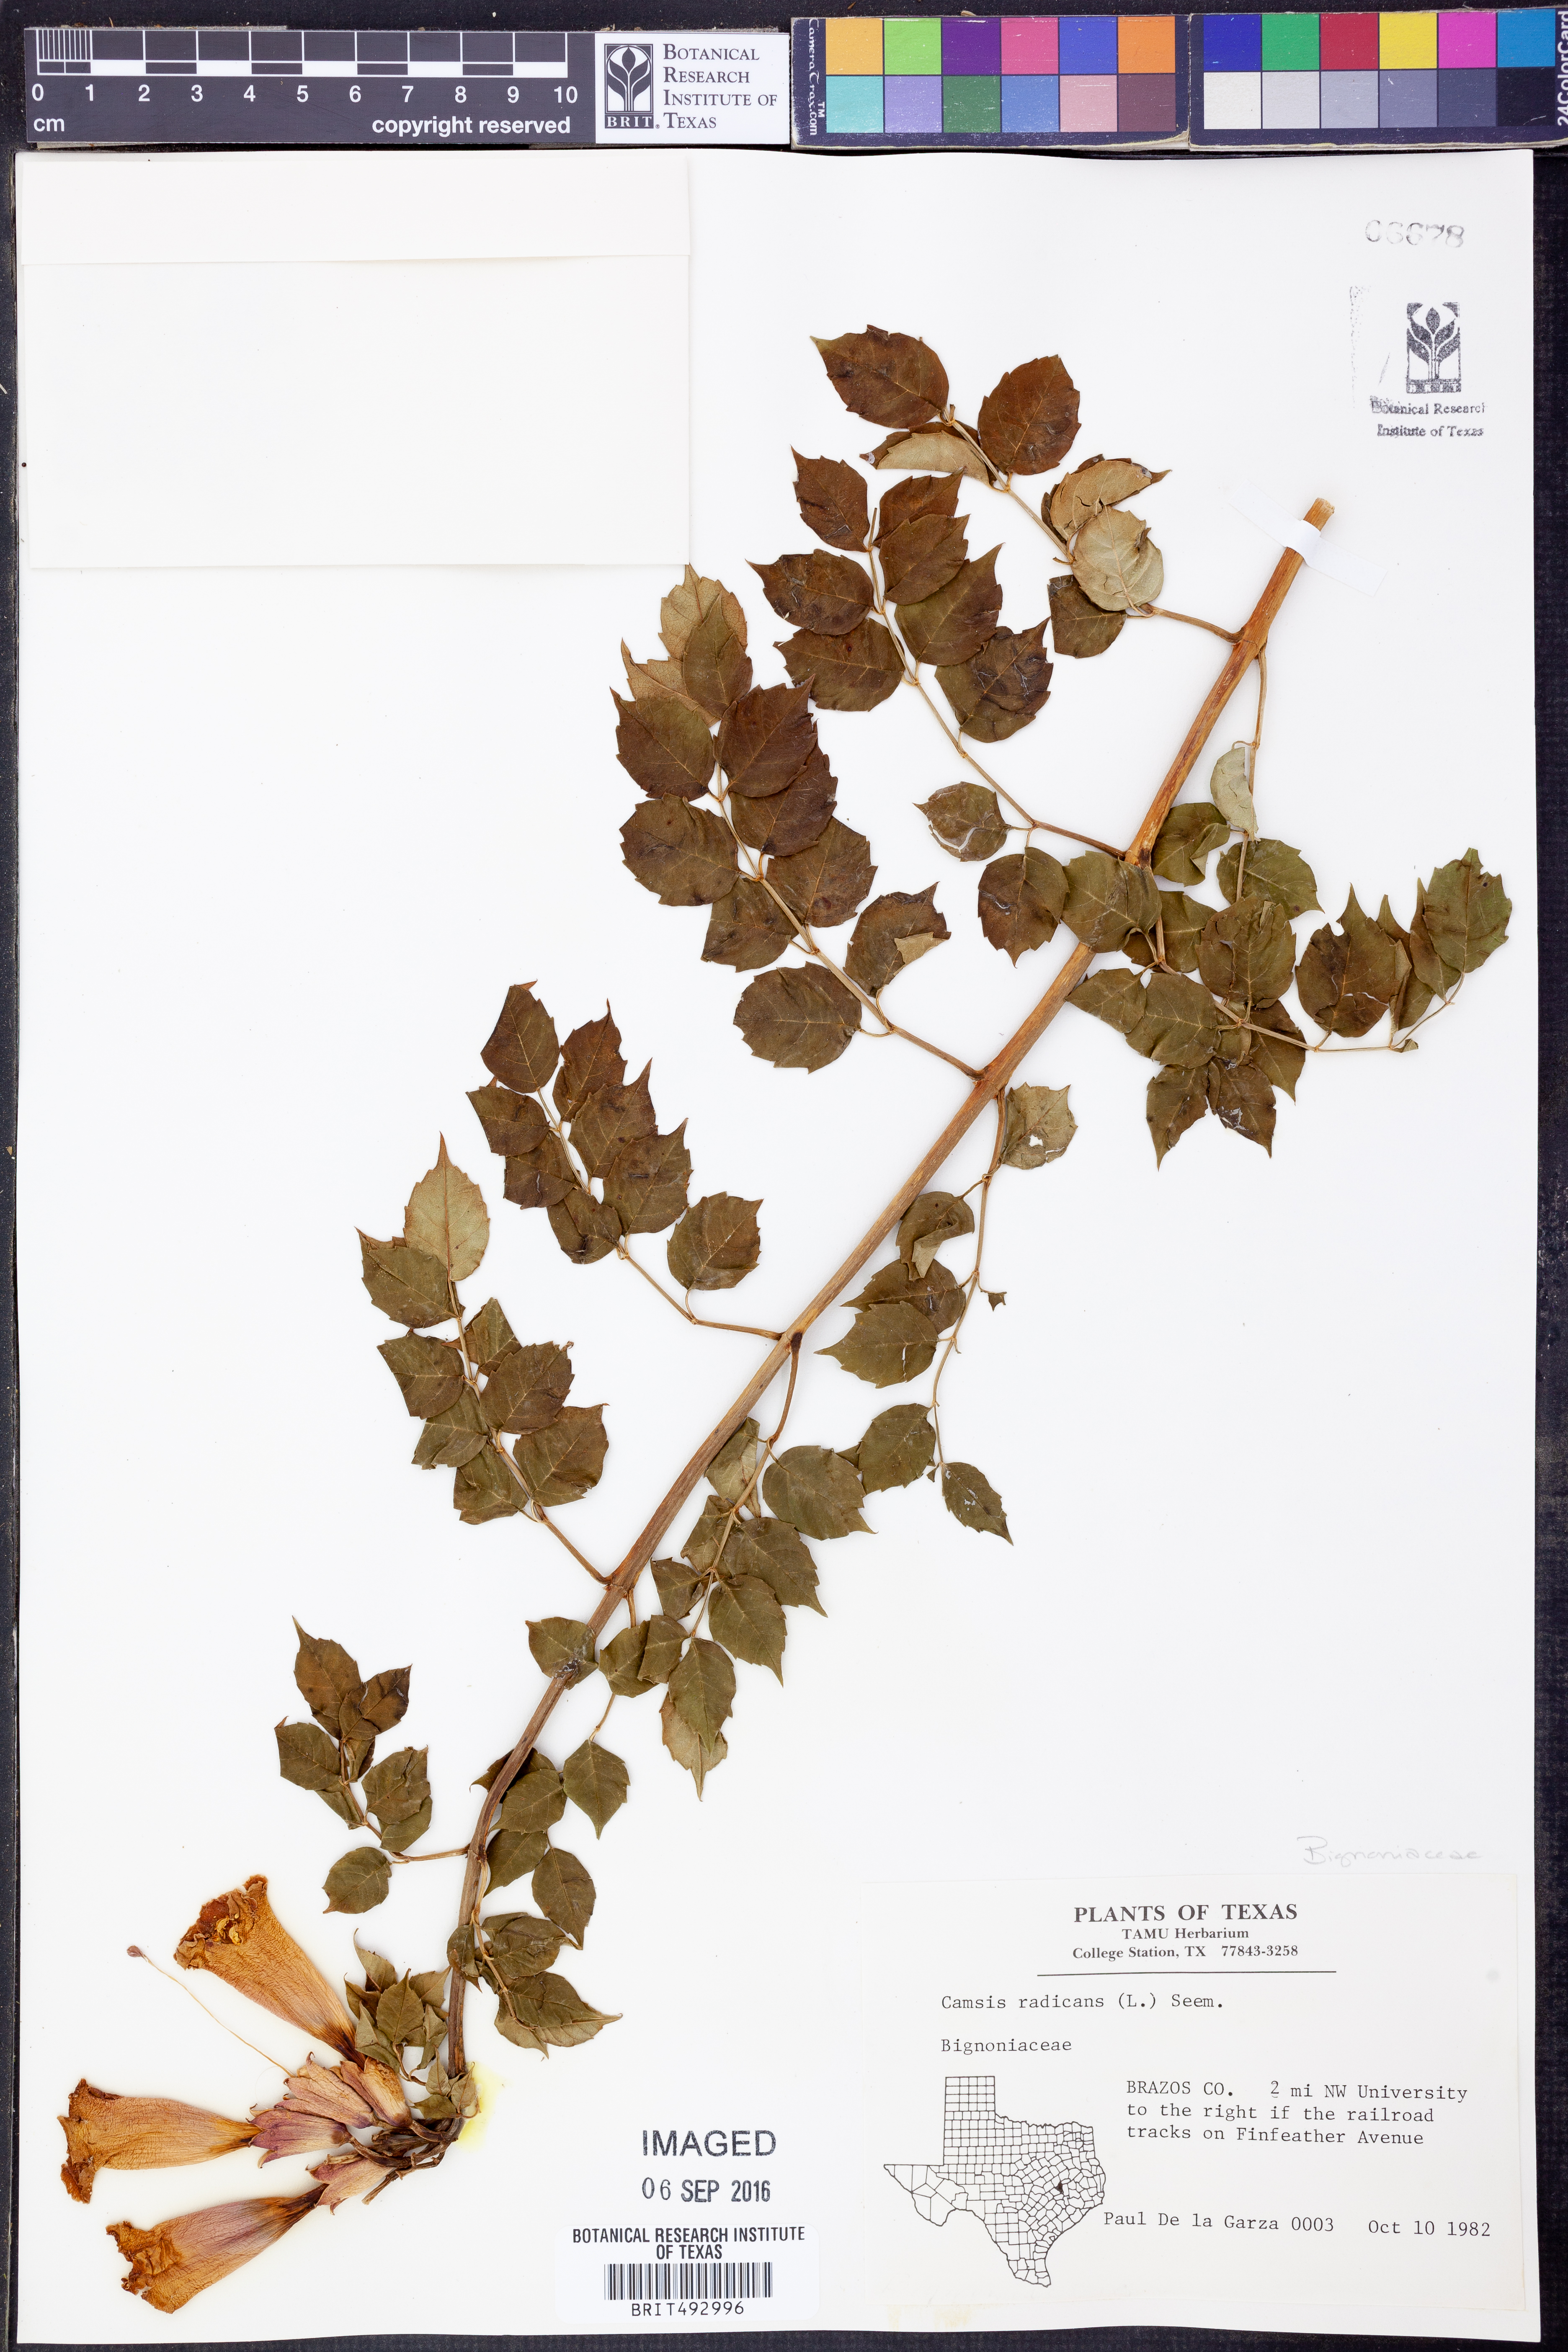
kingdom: Plantae
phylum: Tracheophyta
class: Magnoliopsida
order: Lamiales
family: Bignoniaceae
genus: Campsis
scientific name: Campsis radicans
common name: Trumpet-creeper
